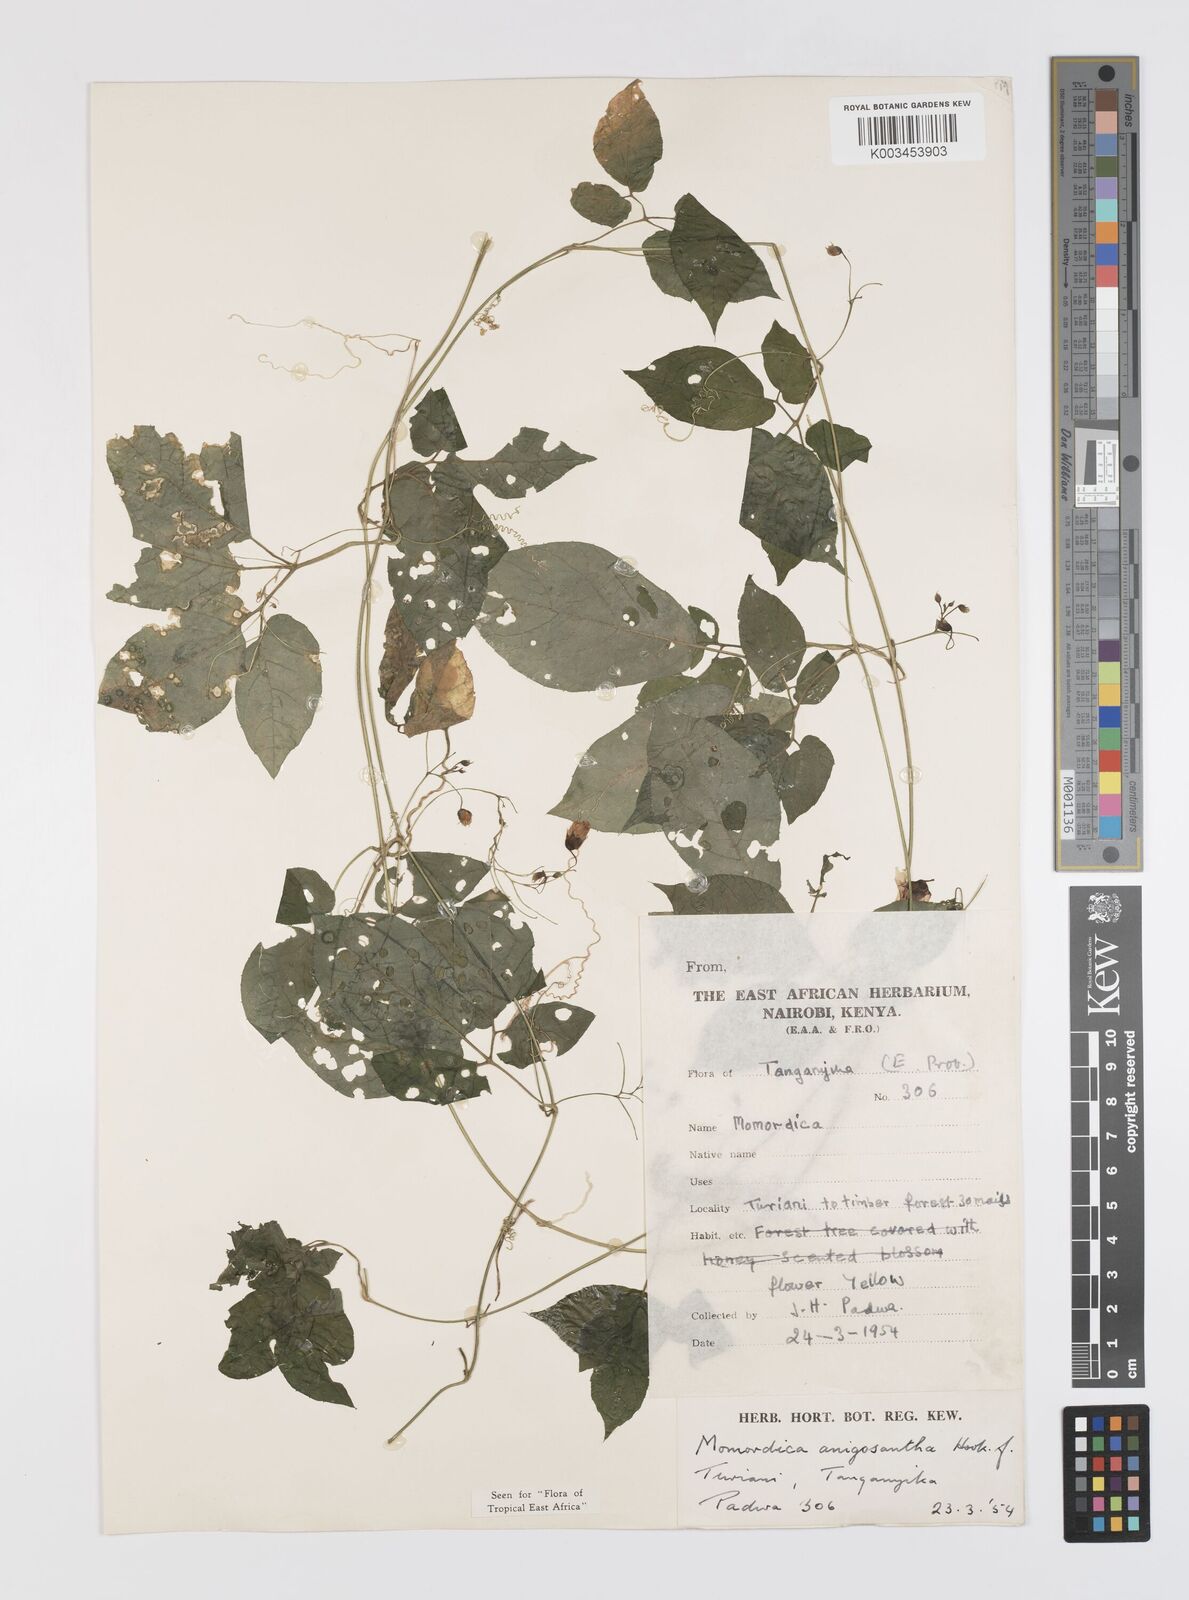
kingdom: Plantae
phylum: Tracheophyta
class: Magnoliopsida
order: Cucurbitales
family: Cucurbitaceae
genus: Momordica
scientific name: Momordica anigosantha
